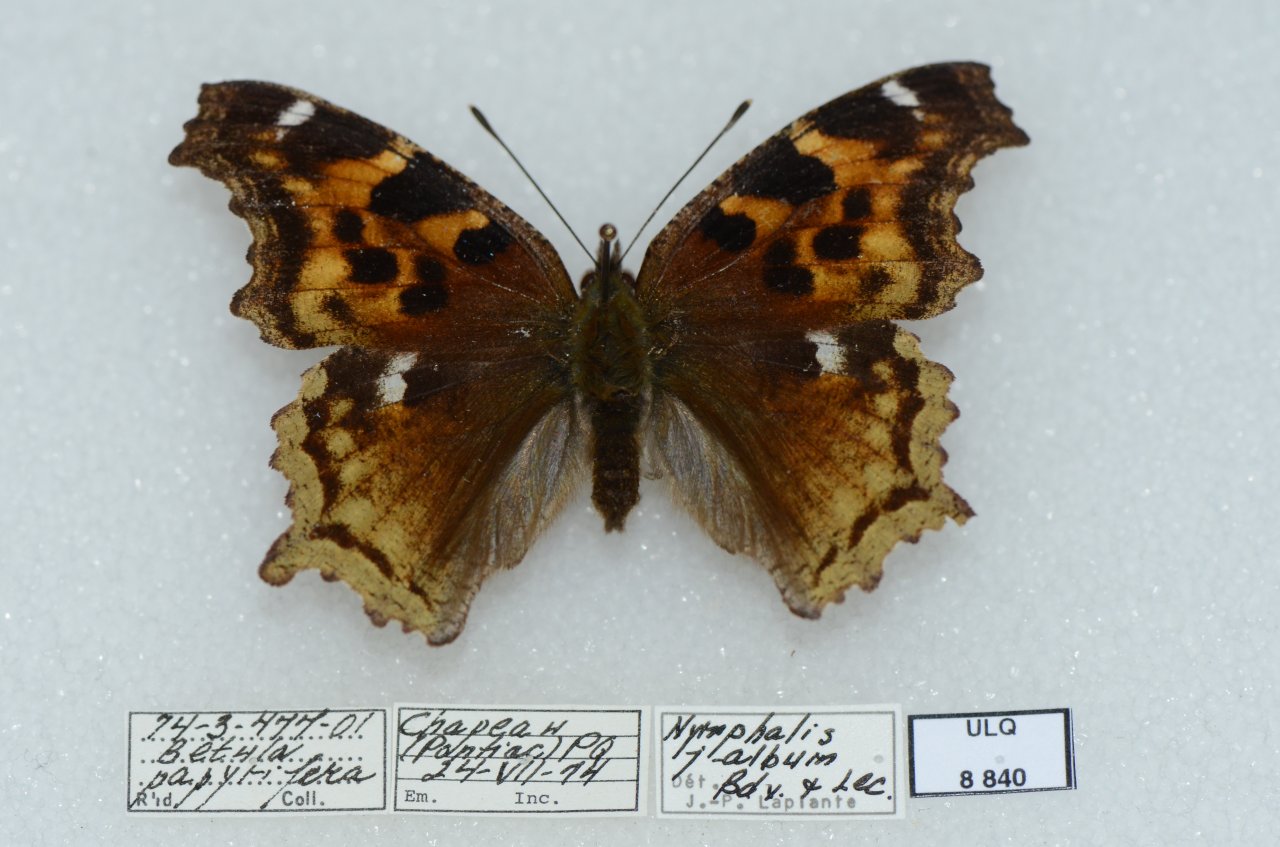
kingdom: Animalia
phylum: Arthropoda
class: Insecta
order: Lepidoptera
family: Nymphalidae
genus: Polygonia
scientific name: Polygonia vaualbum
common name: Compton Tortoiseshell
